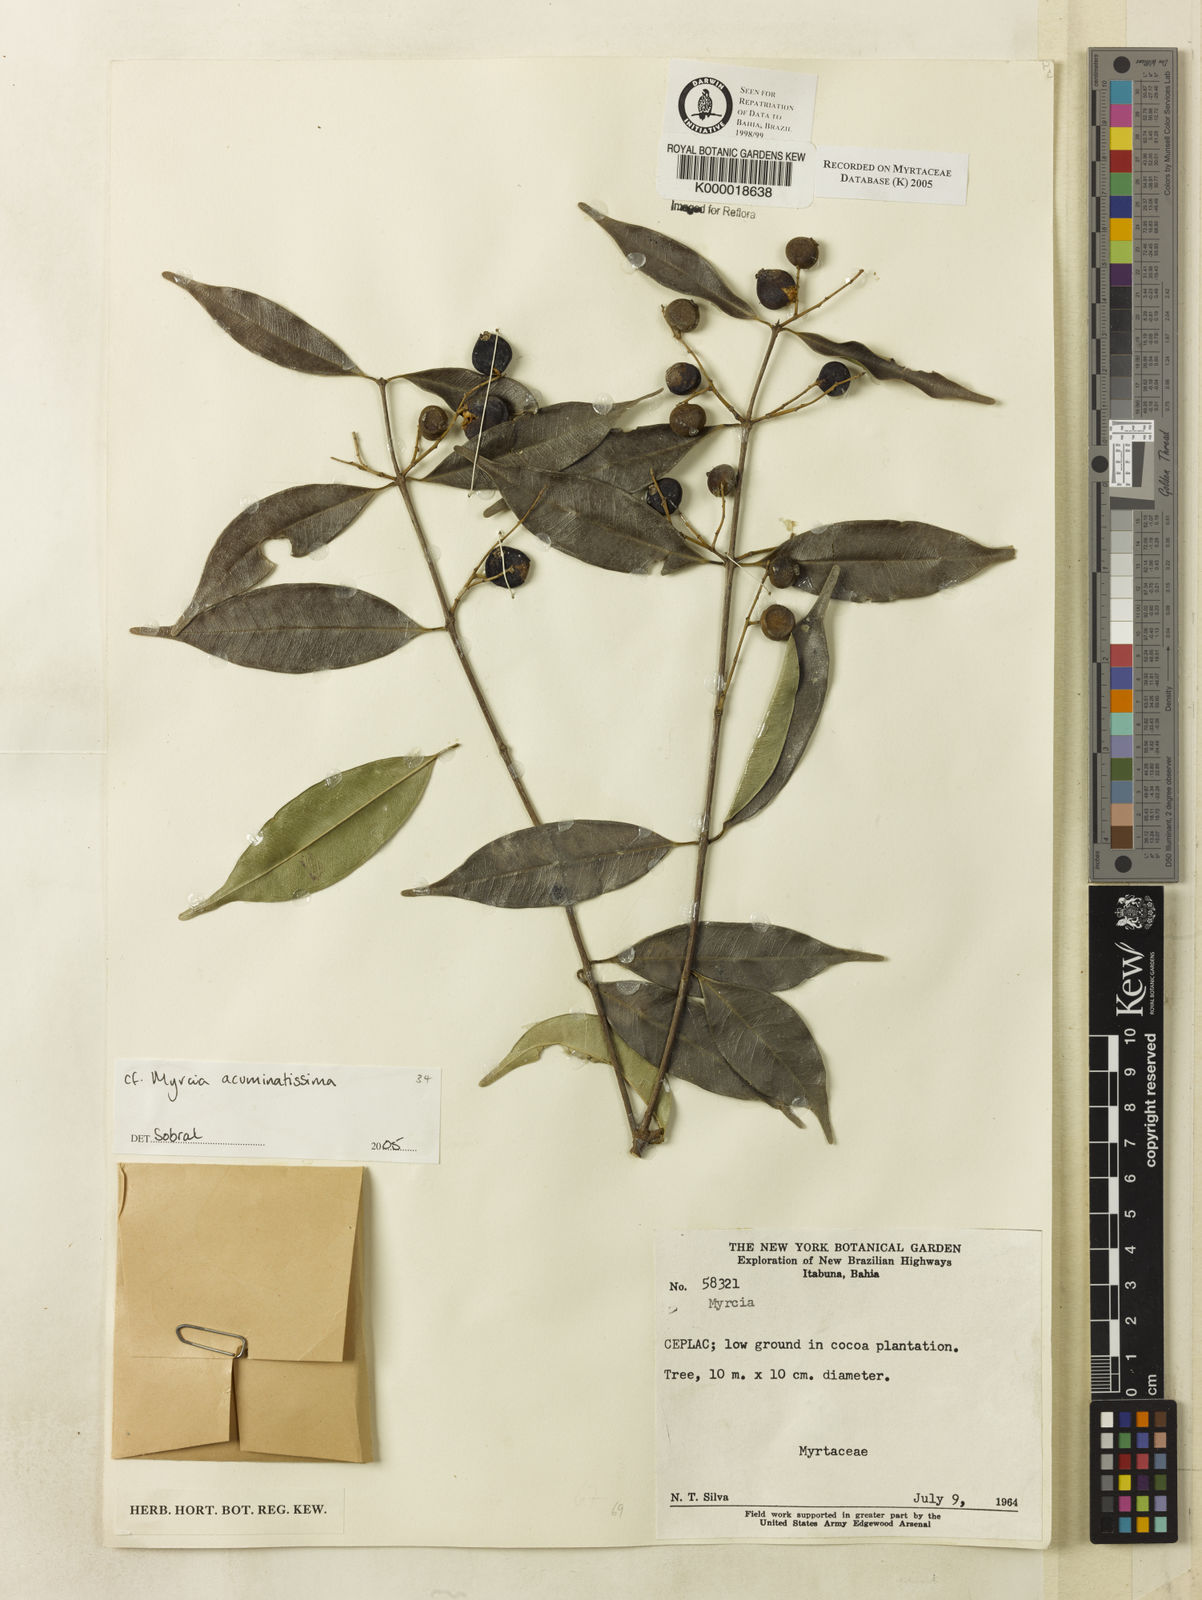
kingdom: Plantae
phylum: Tracheophyta
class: Magnoliopsida
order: Myrtales
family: Myrtaceae
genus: Myrcia
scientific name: Myrcia
